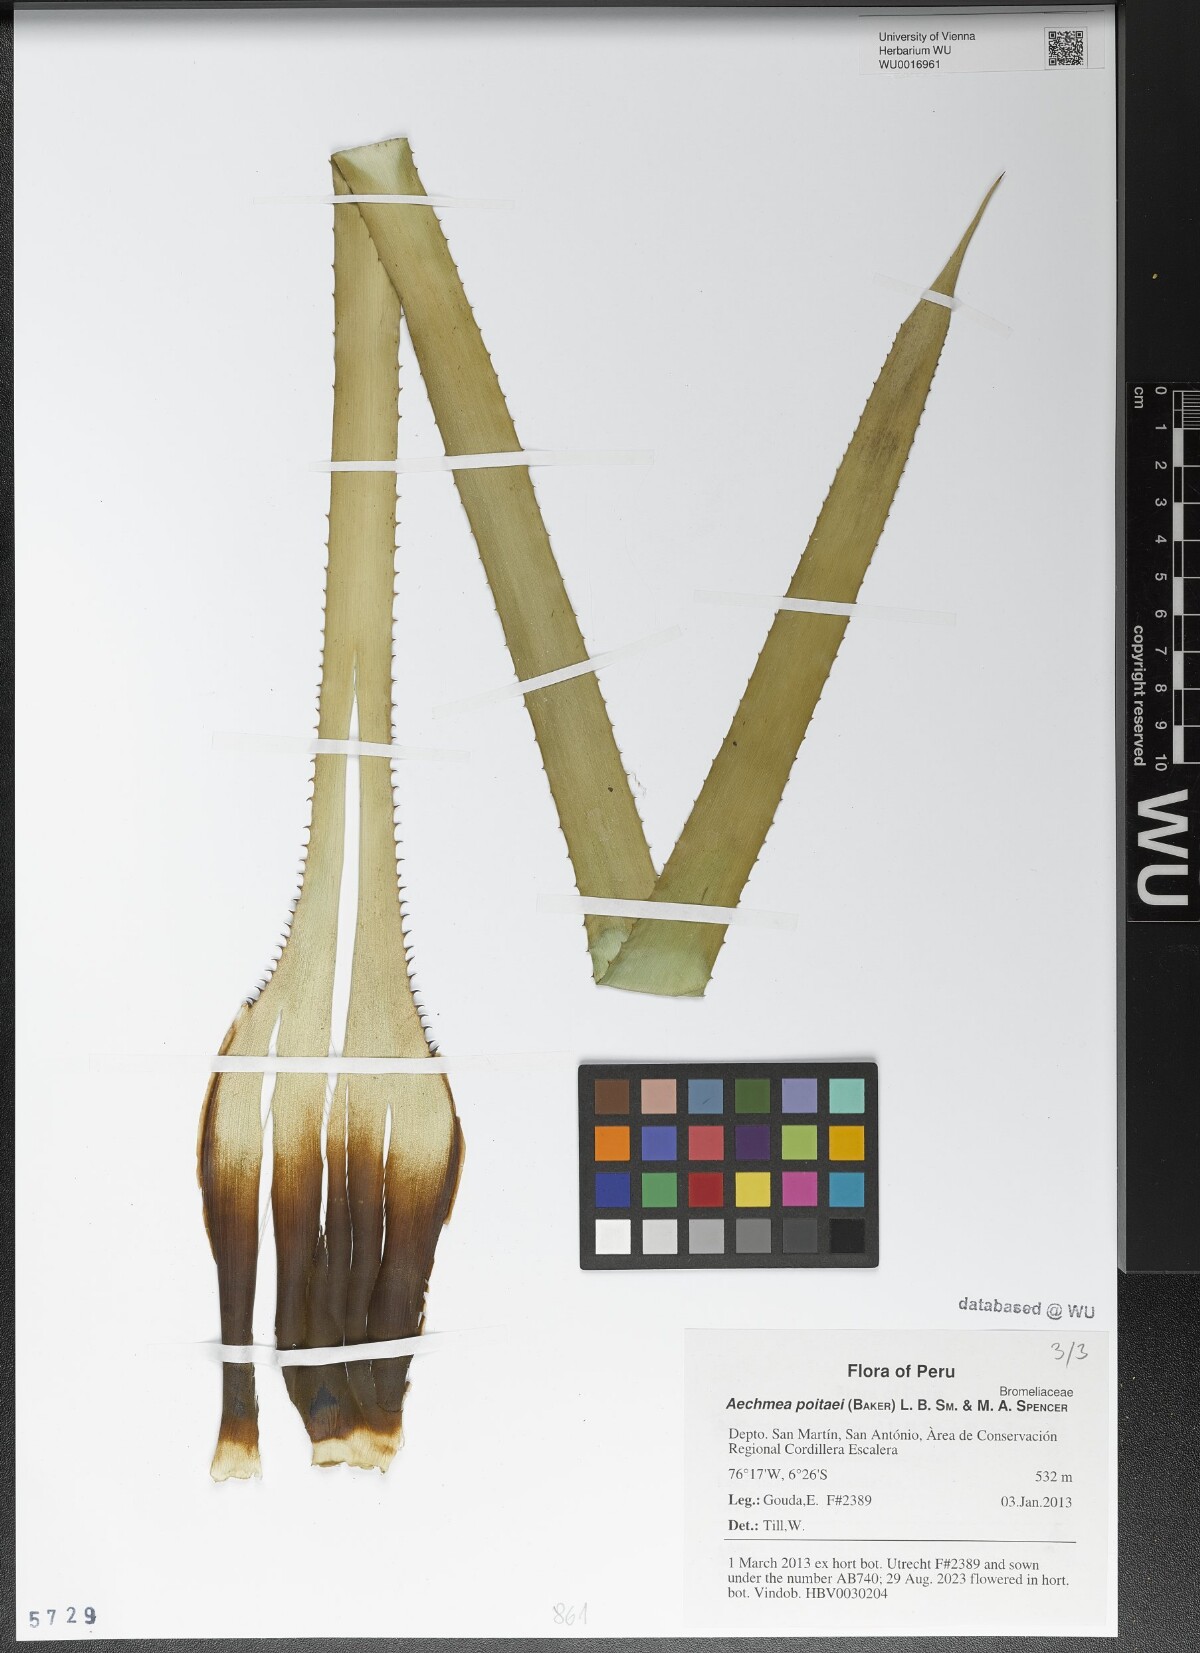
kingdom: Plantae
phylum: Tracheophyta
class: Liliopsida
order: Poales
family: Bromeliaceae
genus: Aechmea
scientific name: Aechmea poitaei
